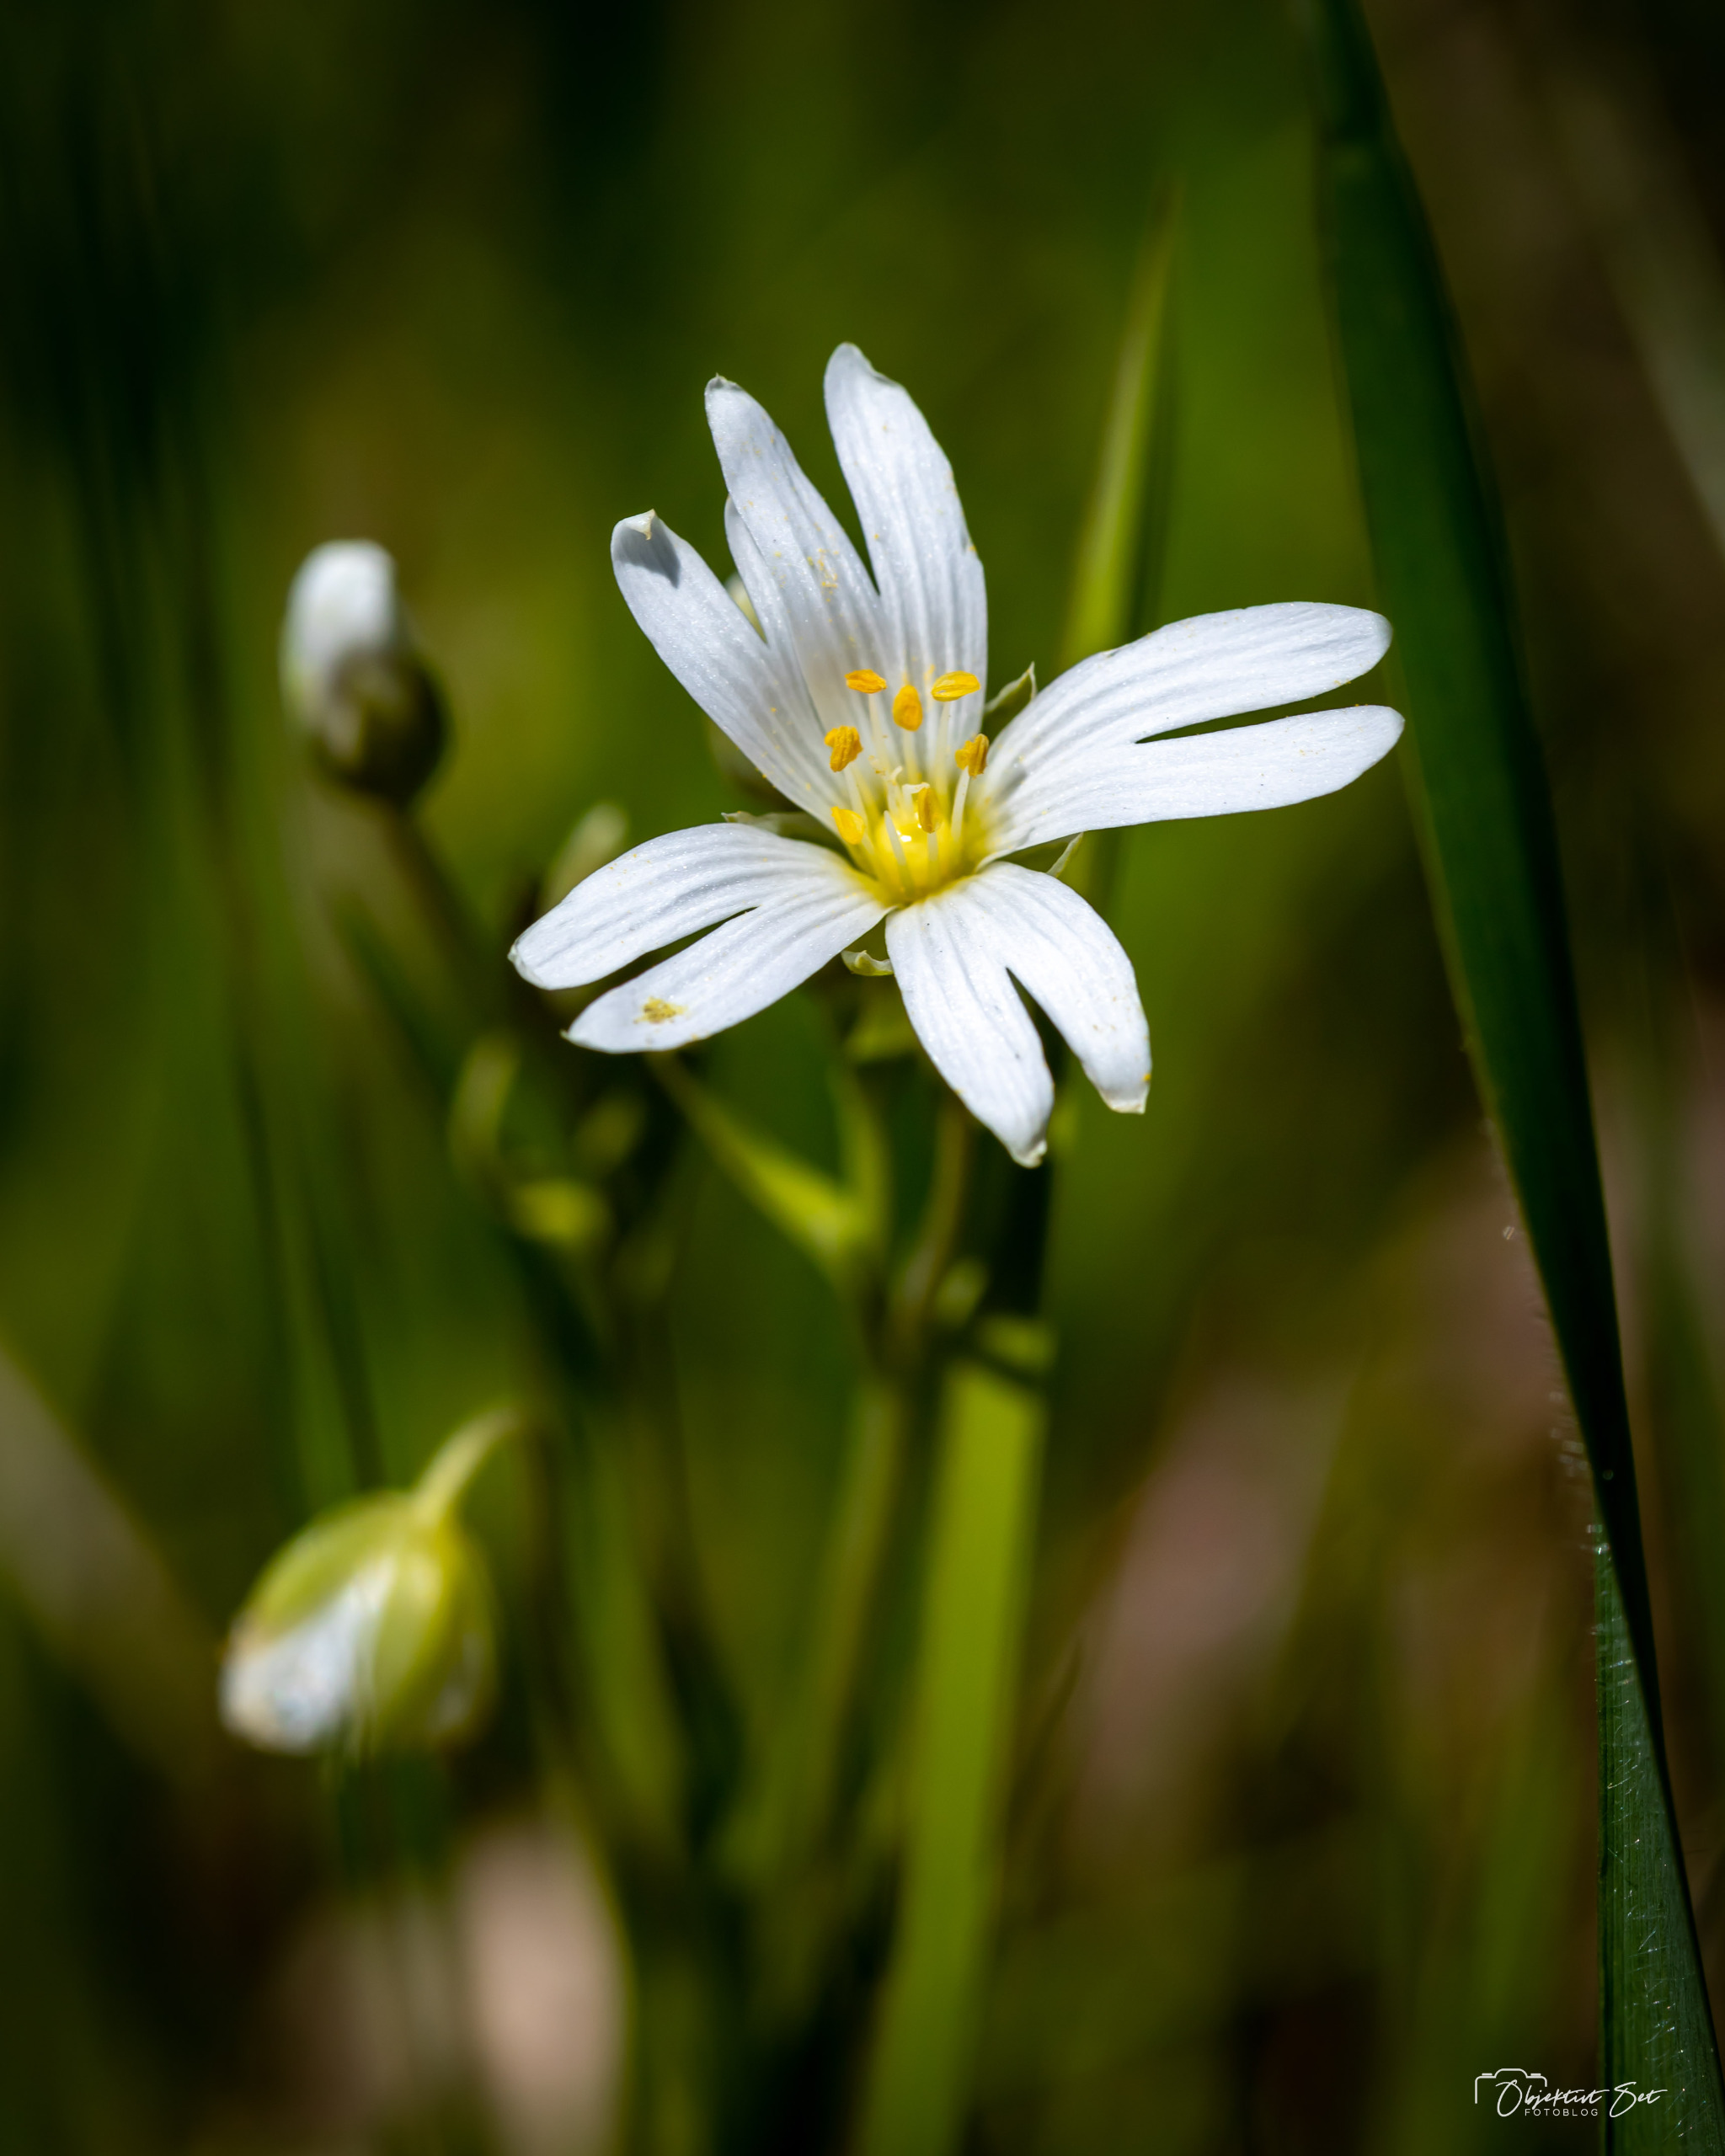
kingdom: Plantae
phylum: Tracheophyta
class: Magnoliopsida
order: Caryophyllales
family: Caryophyllaceae
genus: Rabelera
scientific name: Rabelera holostea
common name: Stor fladstjerne
